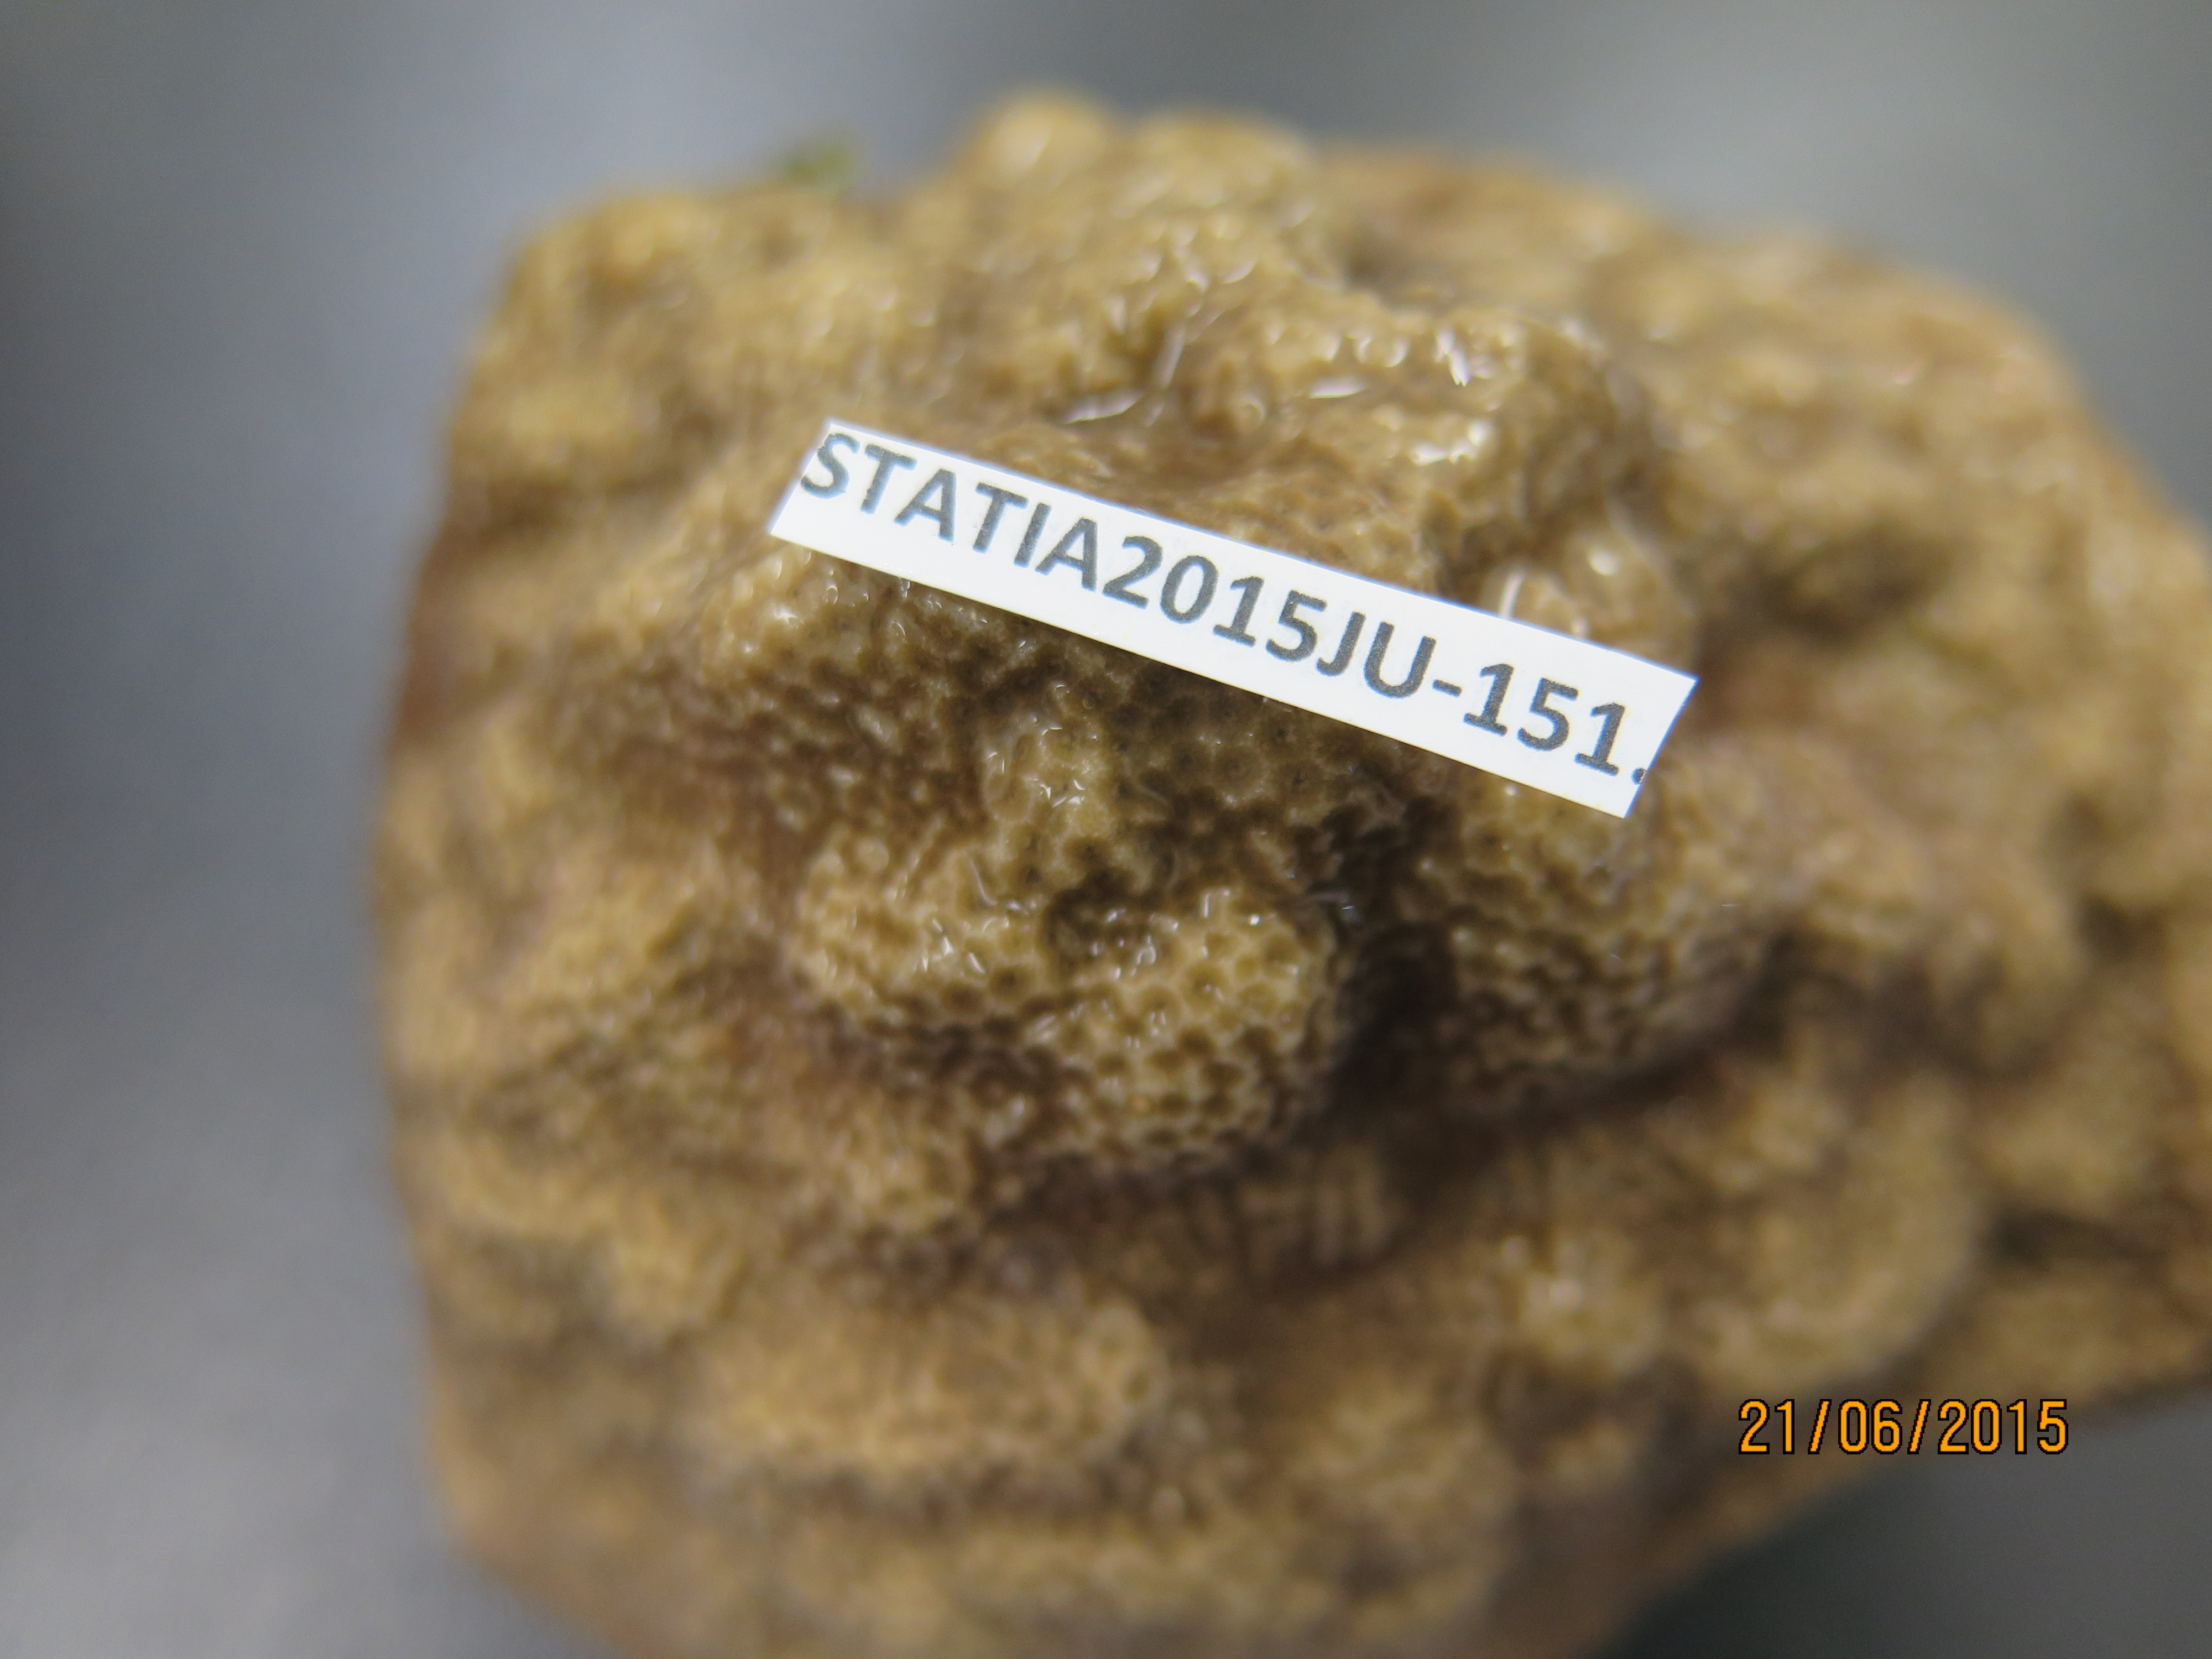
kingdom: Animalia
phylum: Cnidaria
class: Anthozoa
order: Scleractinia
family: Poritidae
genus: Porites
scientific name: Porites astreoides
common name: Mustard hill coral
